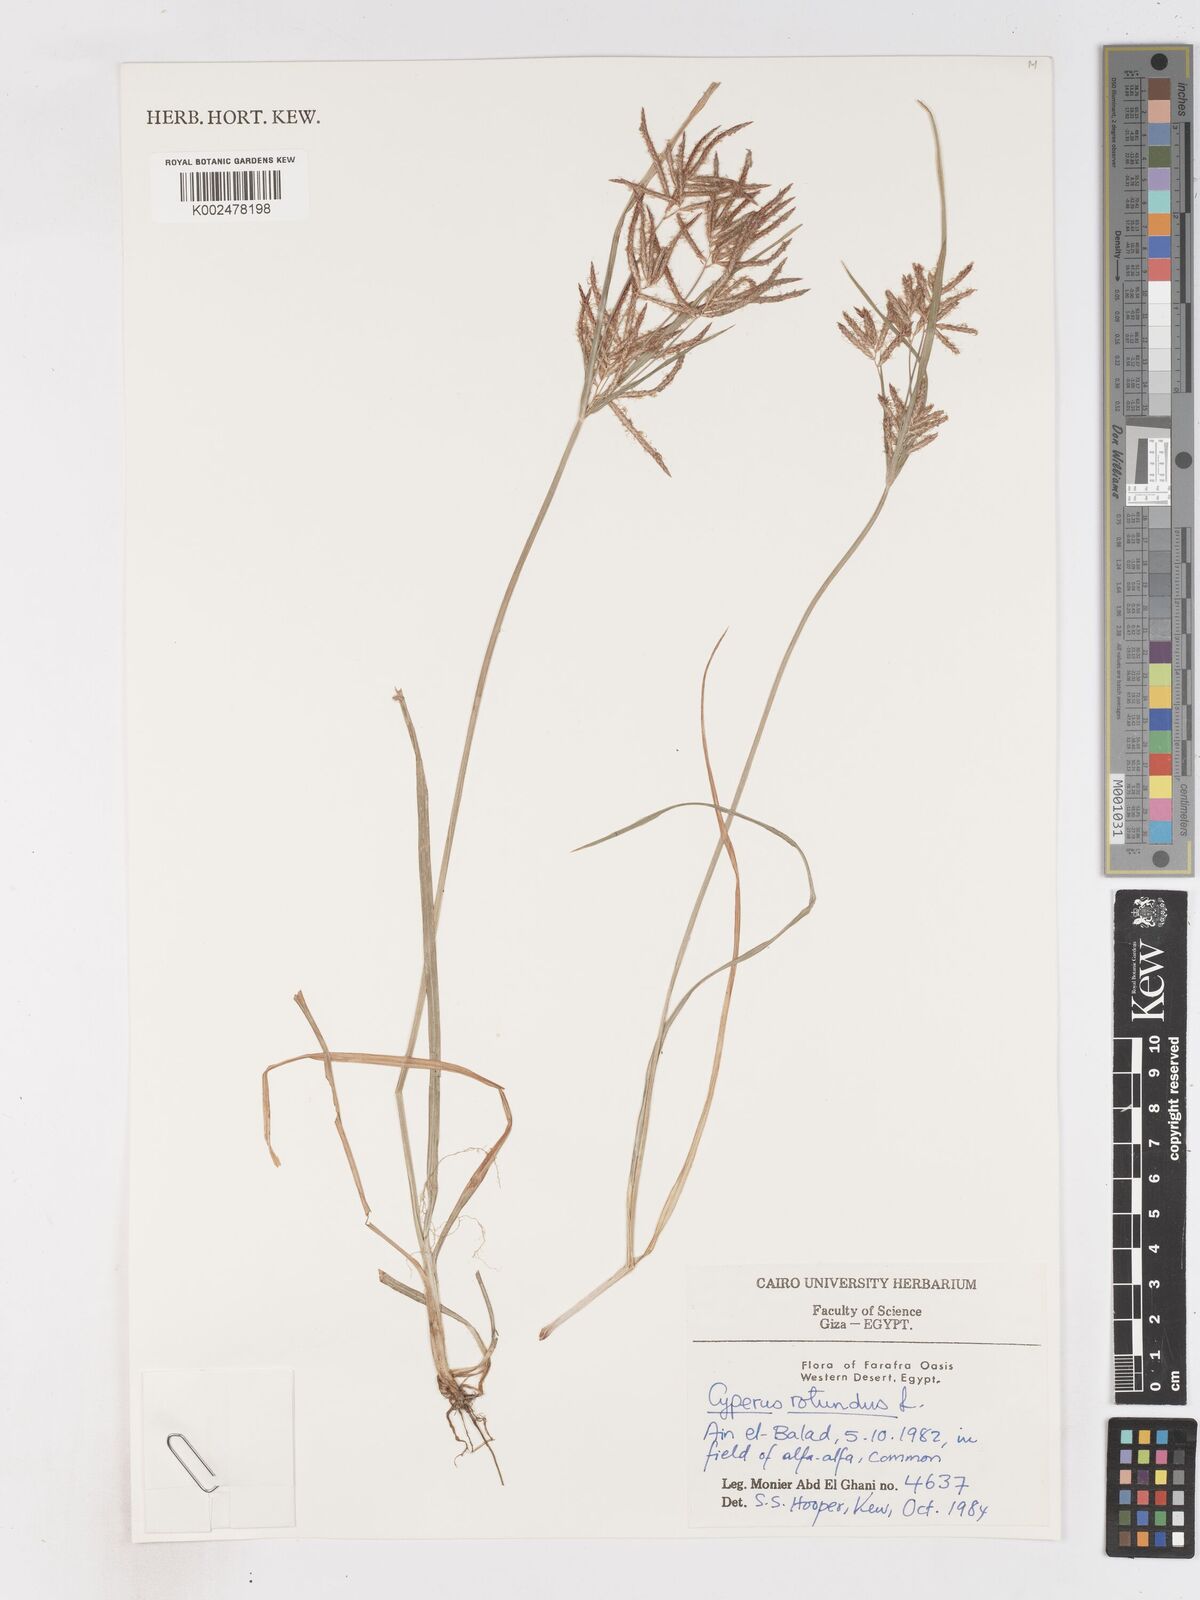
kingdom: Plantae
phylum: Tracheophyta
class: Liliopsida
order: Poales
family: Cyperaceae
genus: Cyperus
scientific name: Cyperus rotundus
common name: Nutgrass
